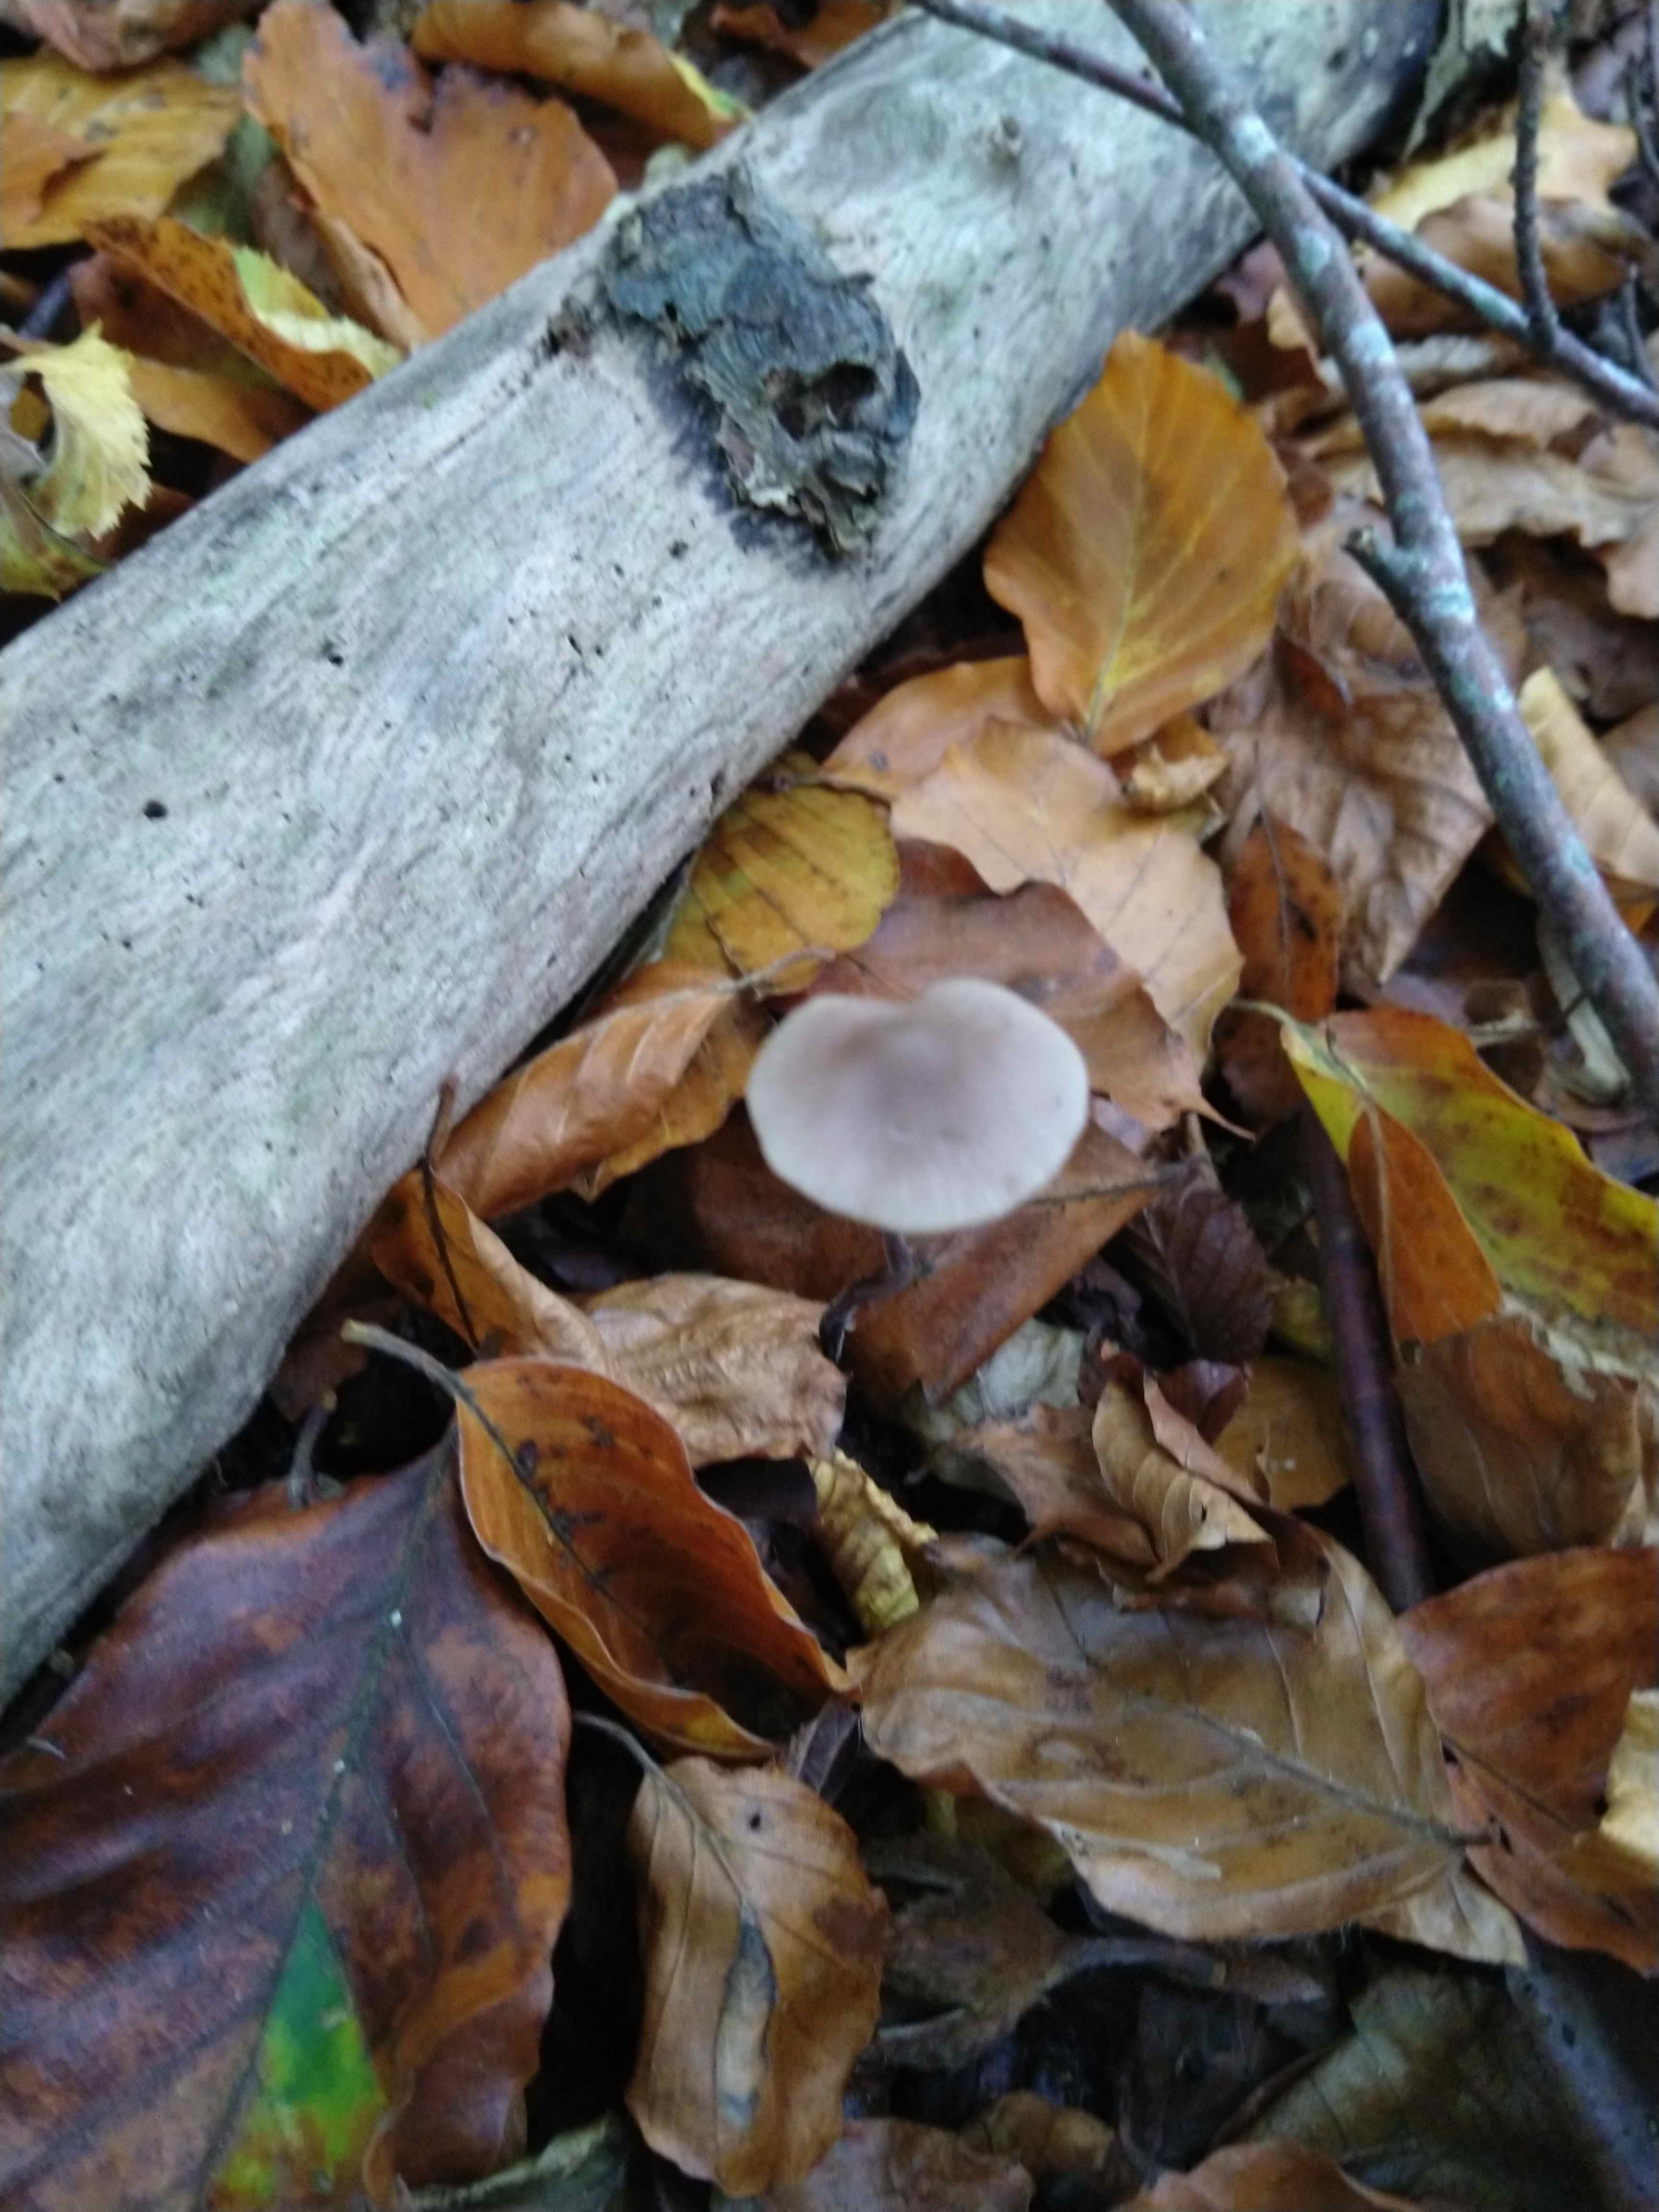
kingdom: Fungi
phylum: Basidiomycota
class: Agaricomycetes
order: Agaricales
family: Omphalotaceae
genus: Mycetinis
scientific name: Mycetinis alliaceus
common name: stor løghat
